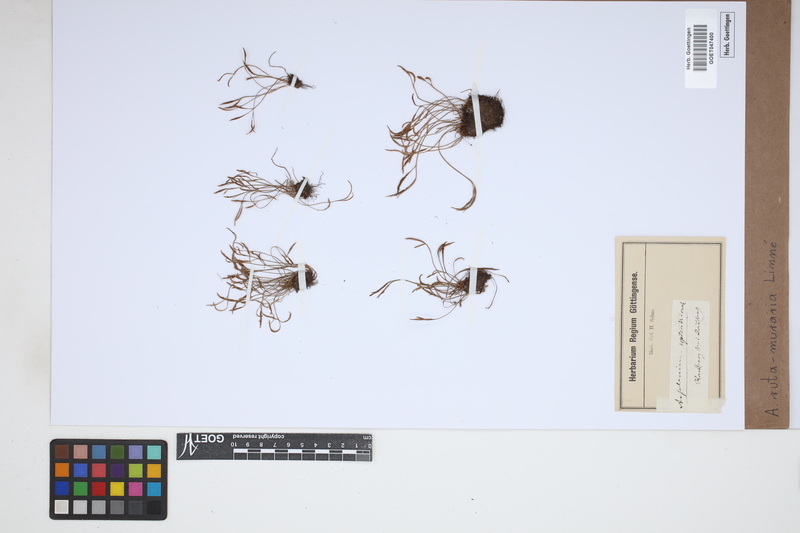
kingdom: Plantae
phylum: Tracheophyta
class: Polypodiopsida
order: Polypodiales
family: Aspleniaceae
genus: Asplenium
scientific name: Asplenium ruta-muraria
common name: Wall-rue
